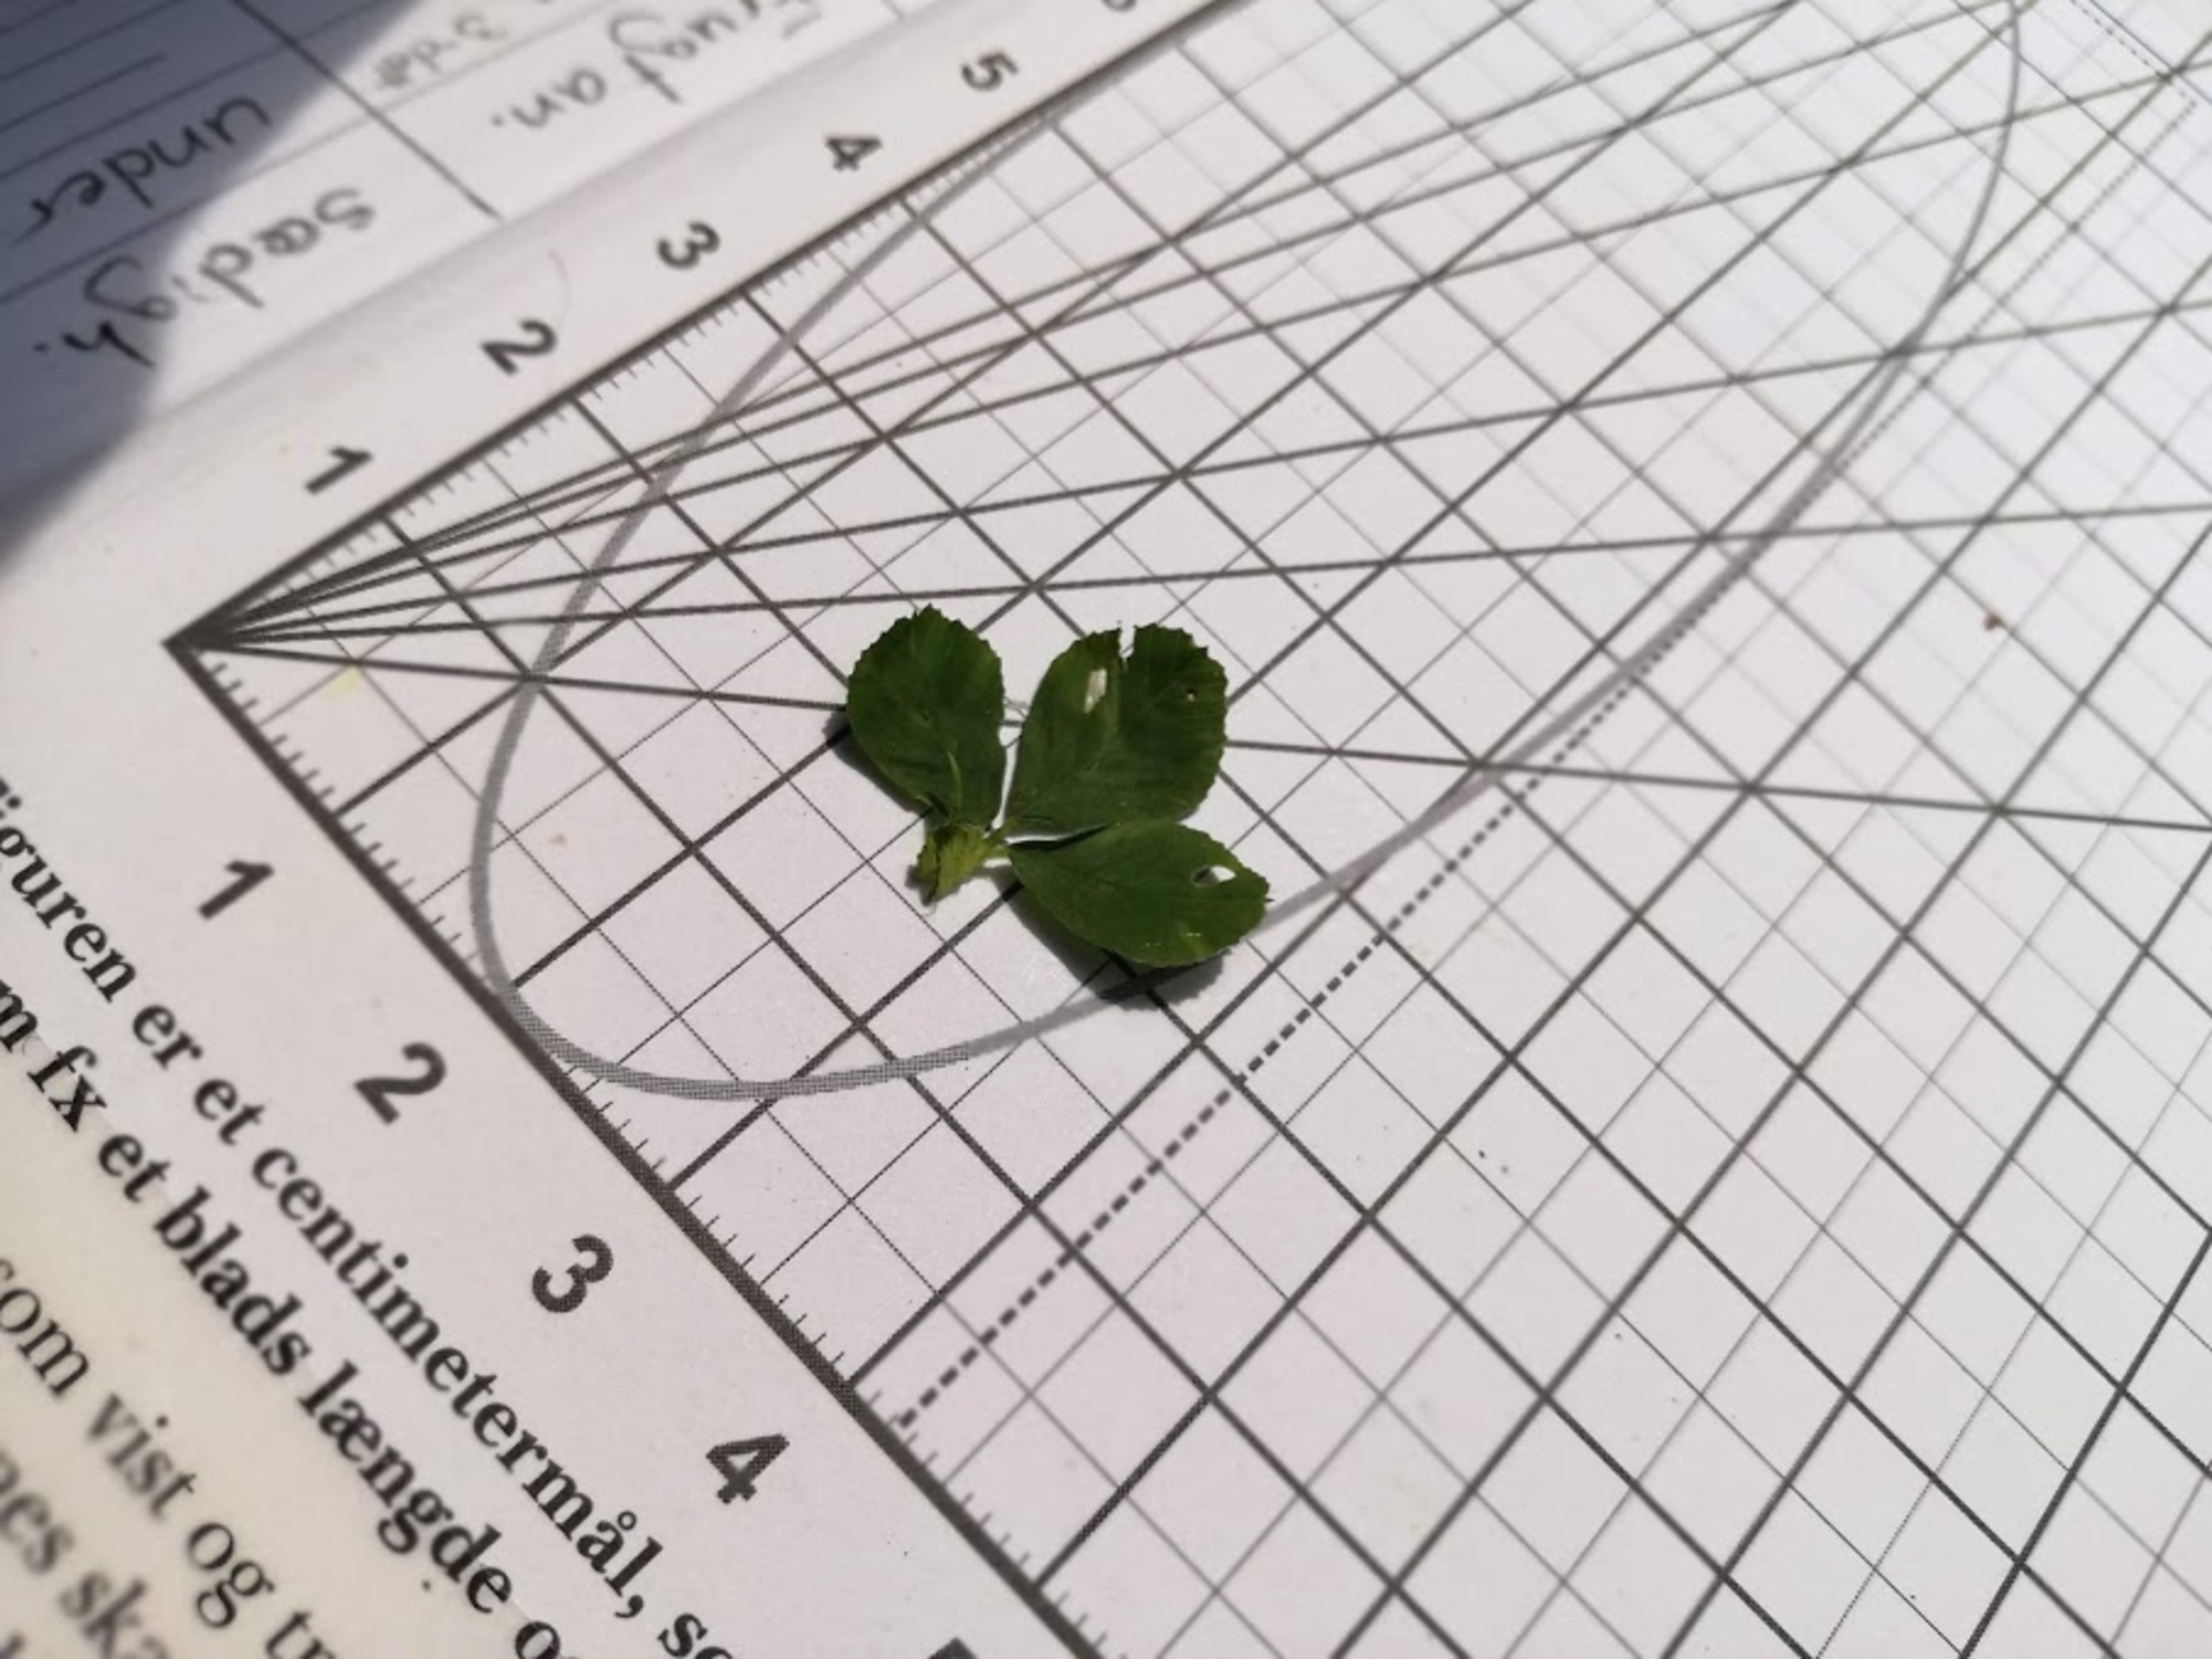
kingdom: Plantae
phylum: Tracheophyta
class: Magnoliopsida
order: Fabales
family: Fabaceae
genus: Medicago
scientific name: Medicago lupulina
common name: Humle-sneglebælg
